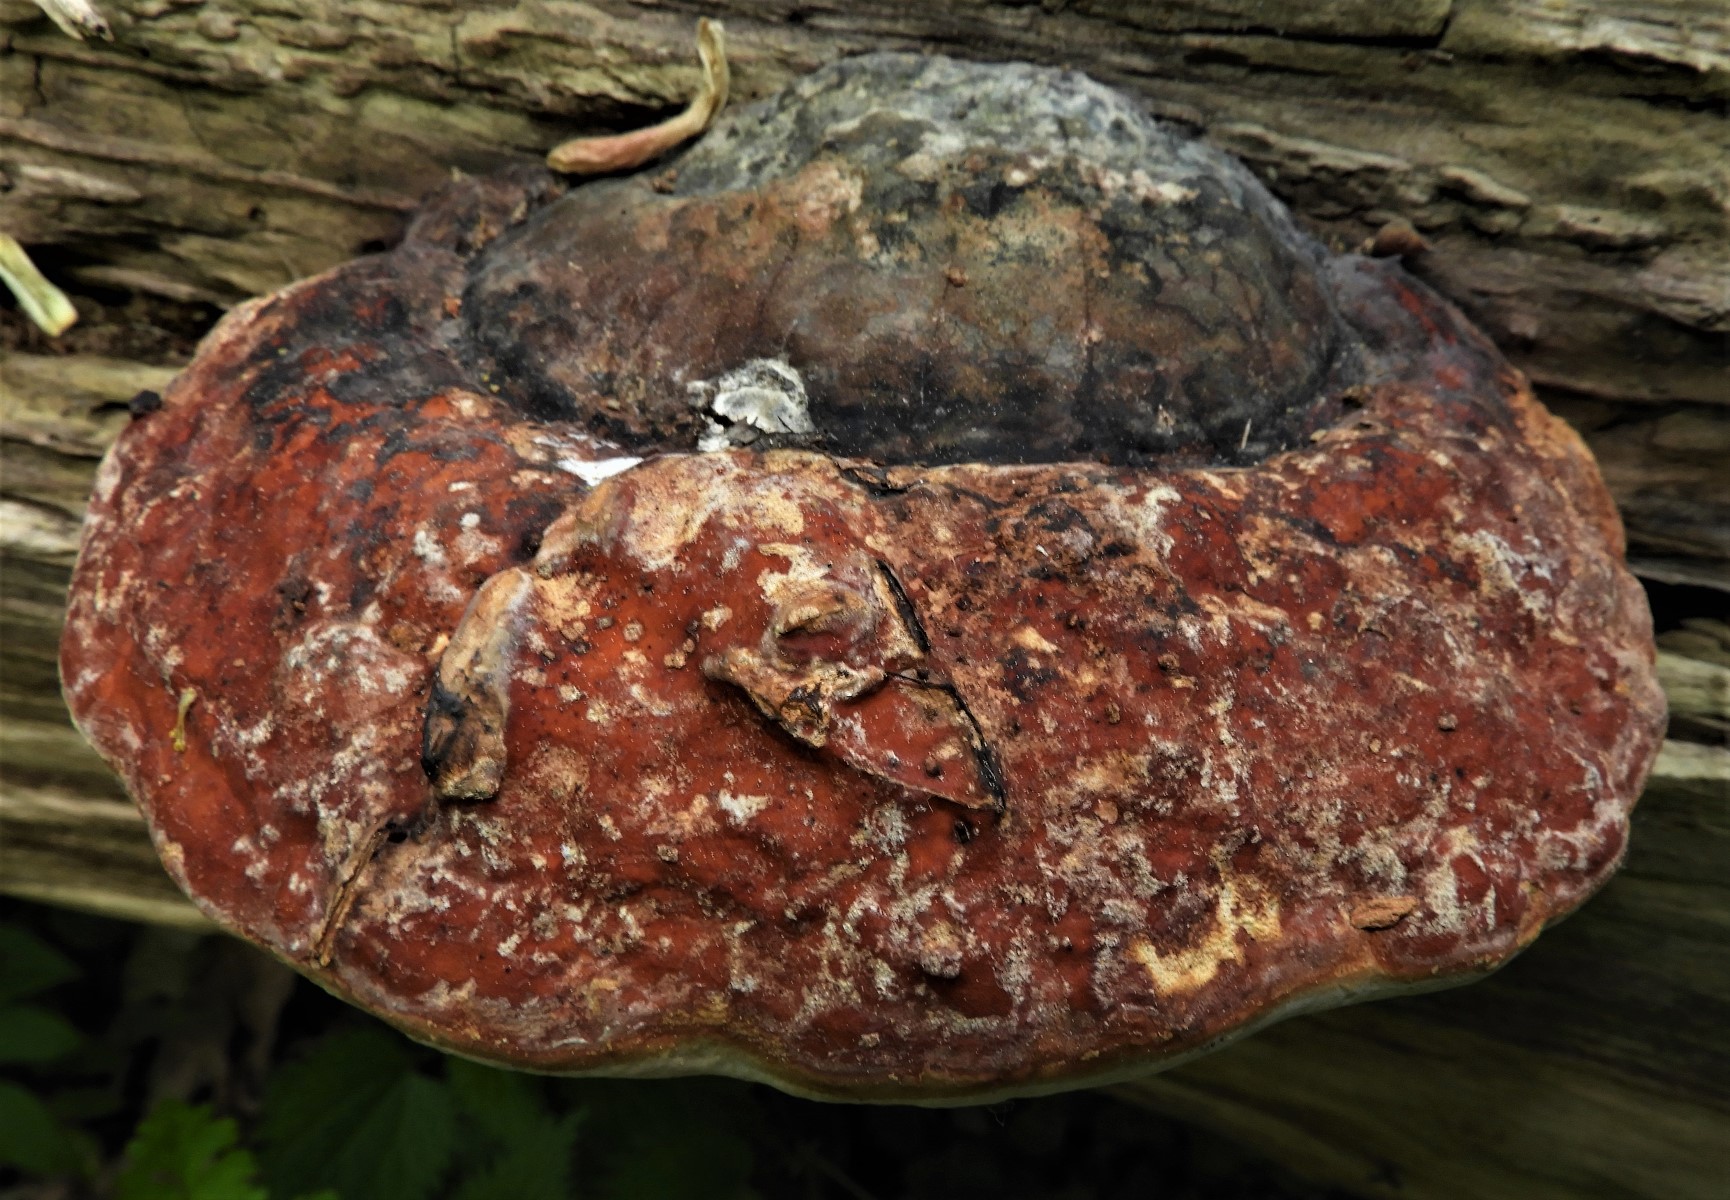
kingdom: Fungi
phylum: Basidiomycota
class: Agaricomycetes
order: Polyporales
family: Fomitopsidaceae
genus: Fomitopsis
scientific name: Fomitopsis pinicola
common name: randbæltet hovporesvamp
